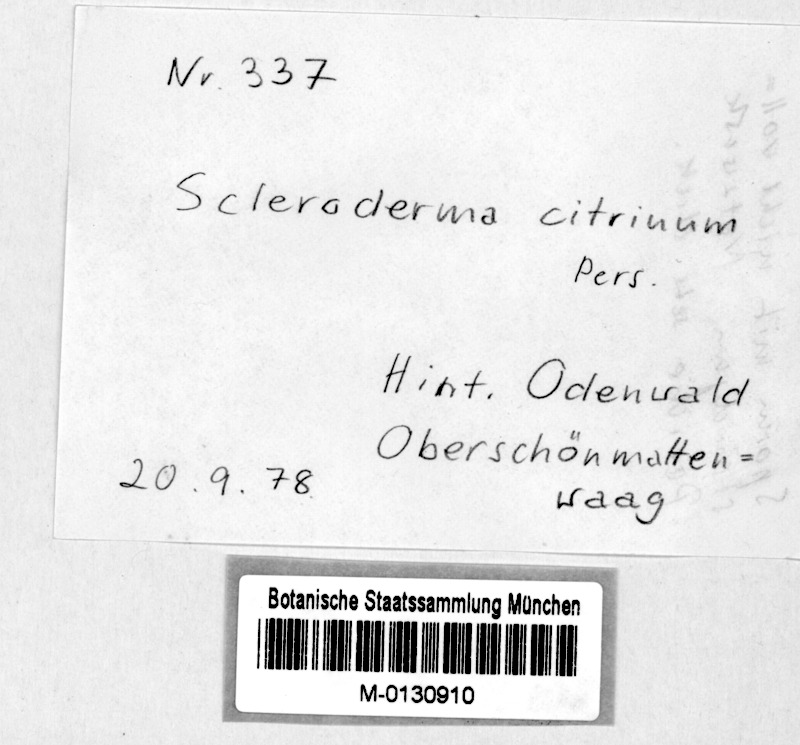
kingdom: Fungi
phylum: Basidiomycota
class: Agaricomycetes
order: Boletales
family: Sclerodermataceae
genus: Scleroderma
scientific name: Scleroderma citrinum
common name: Common earthball
